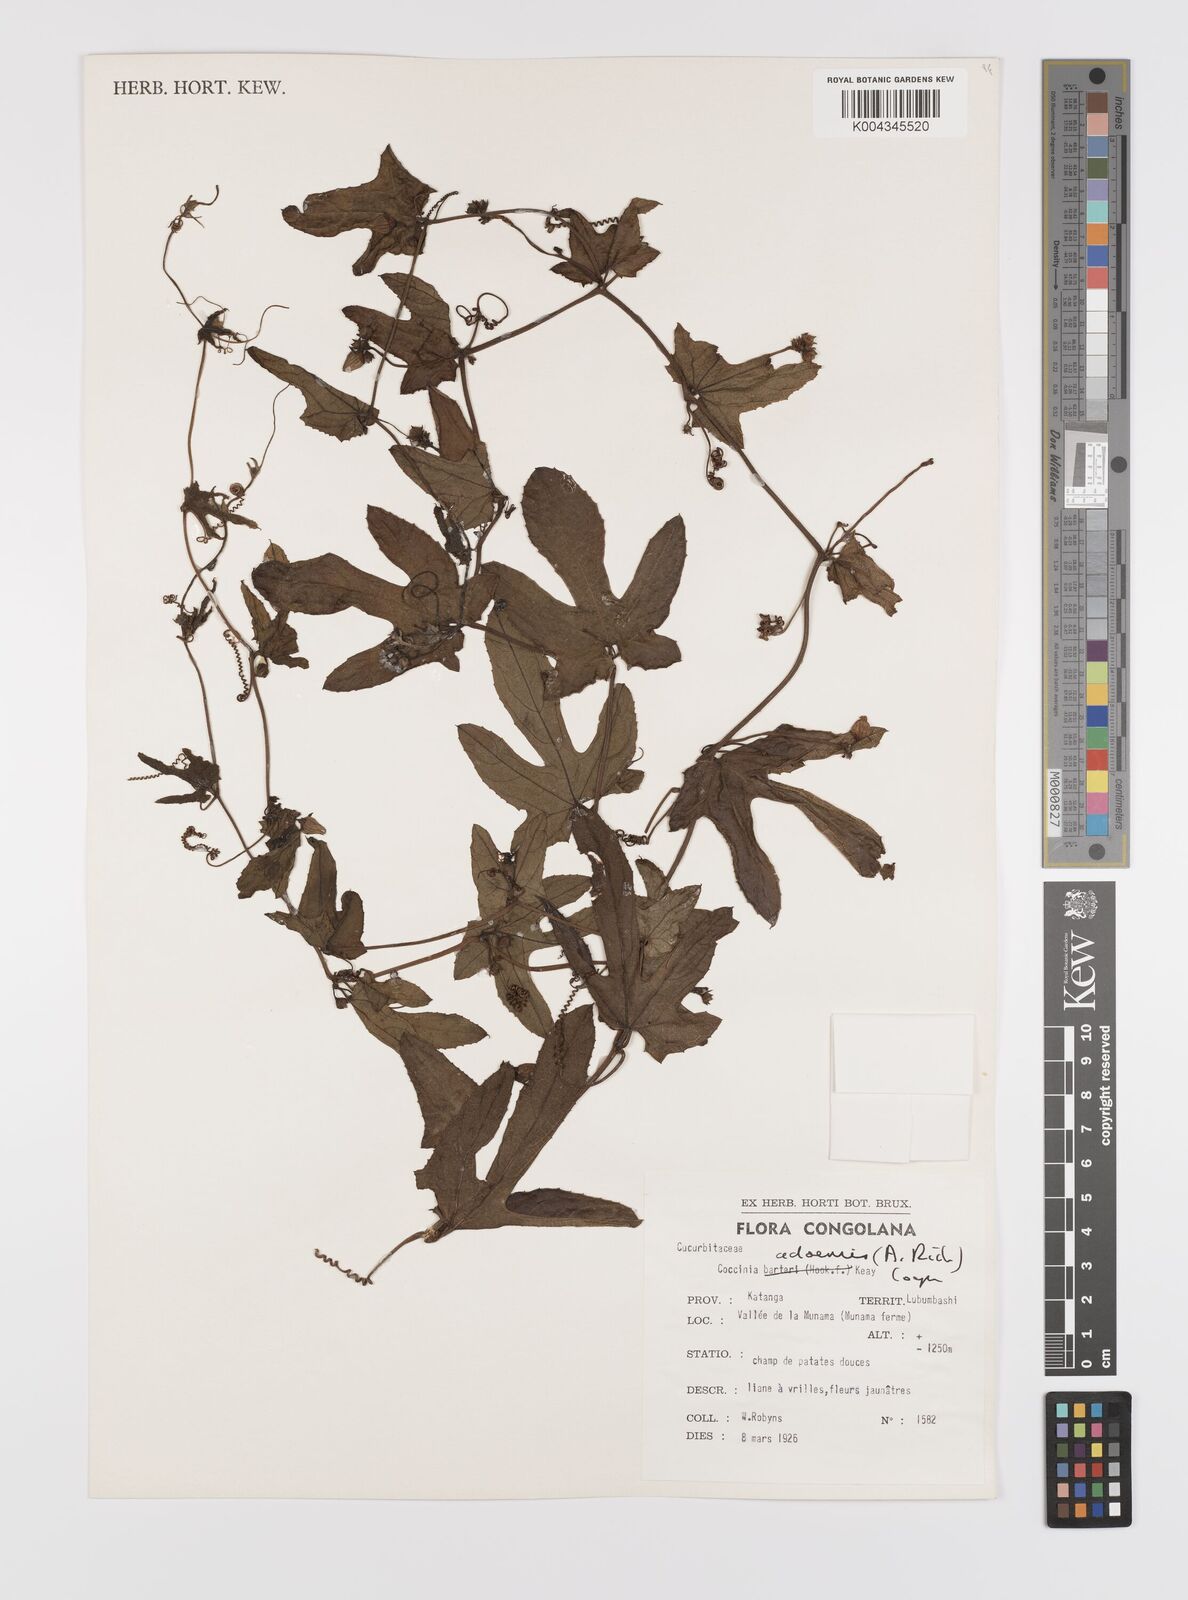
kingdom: Plantae
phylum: Tracheophyta
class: Magnoliopsida
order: Cucurbitales
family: Cucurbitaceae
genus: Coccinia
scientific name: Coccinia adoensis
